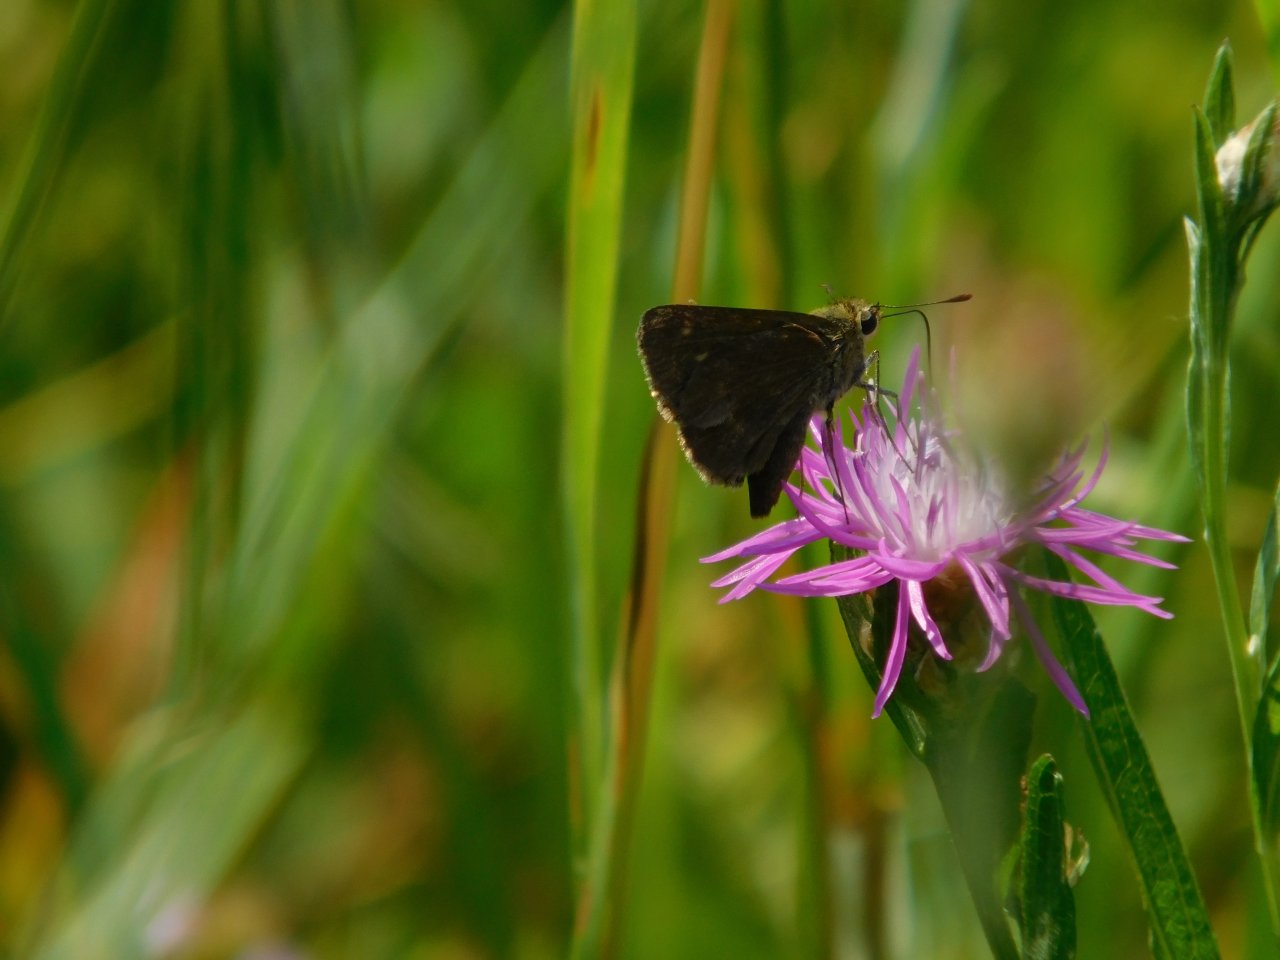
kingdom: Animalia
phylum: Arthropoda
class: Insecta
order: Lepidoptera
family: Hesperiidae
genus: Euphyes
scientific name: Euphyes vestris
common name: Dun Skipper
